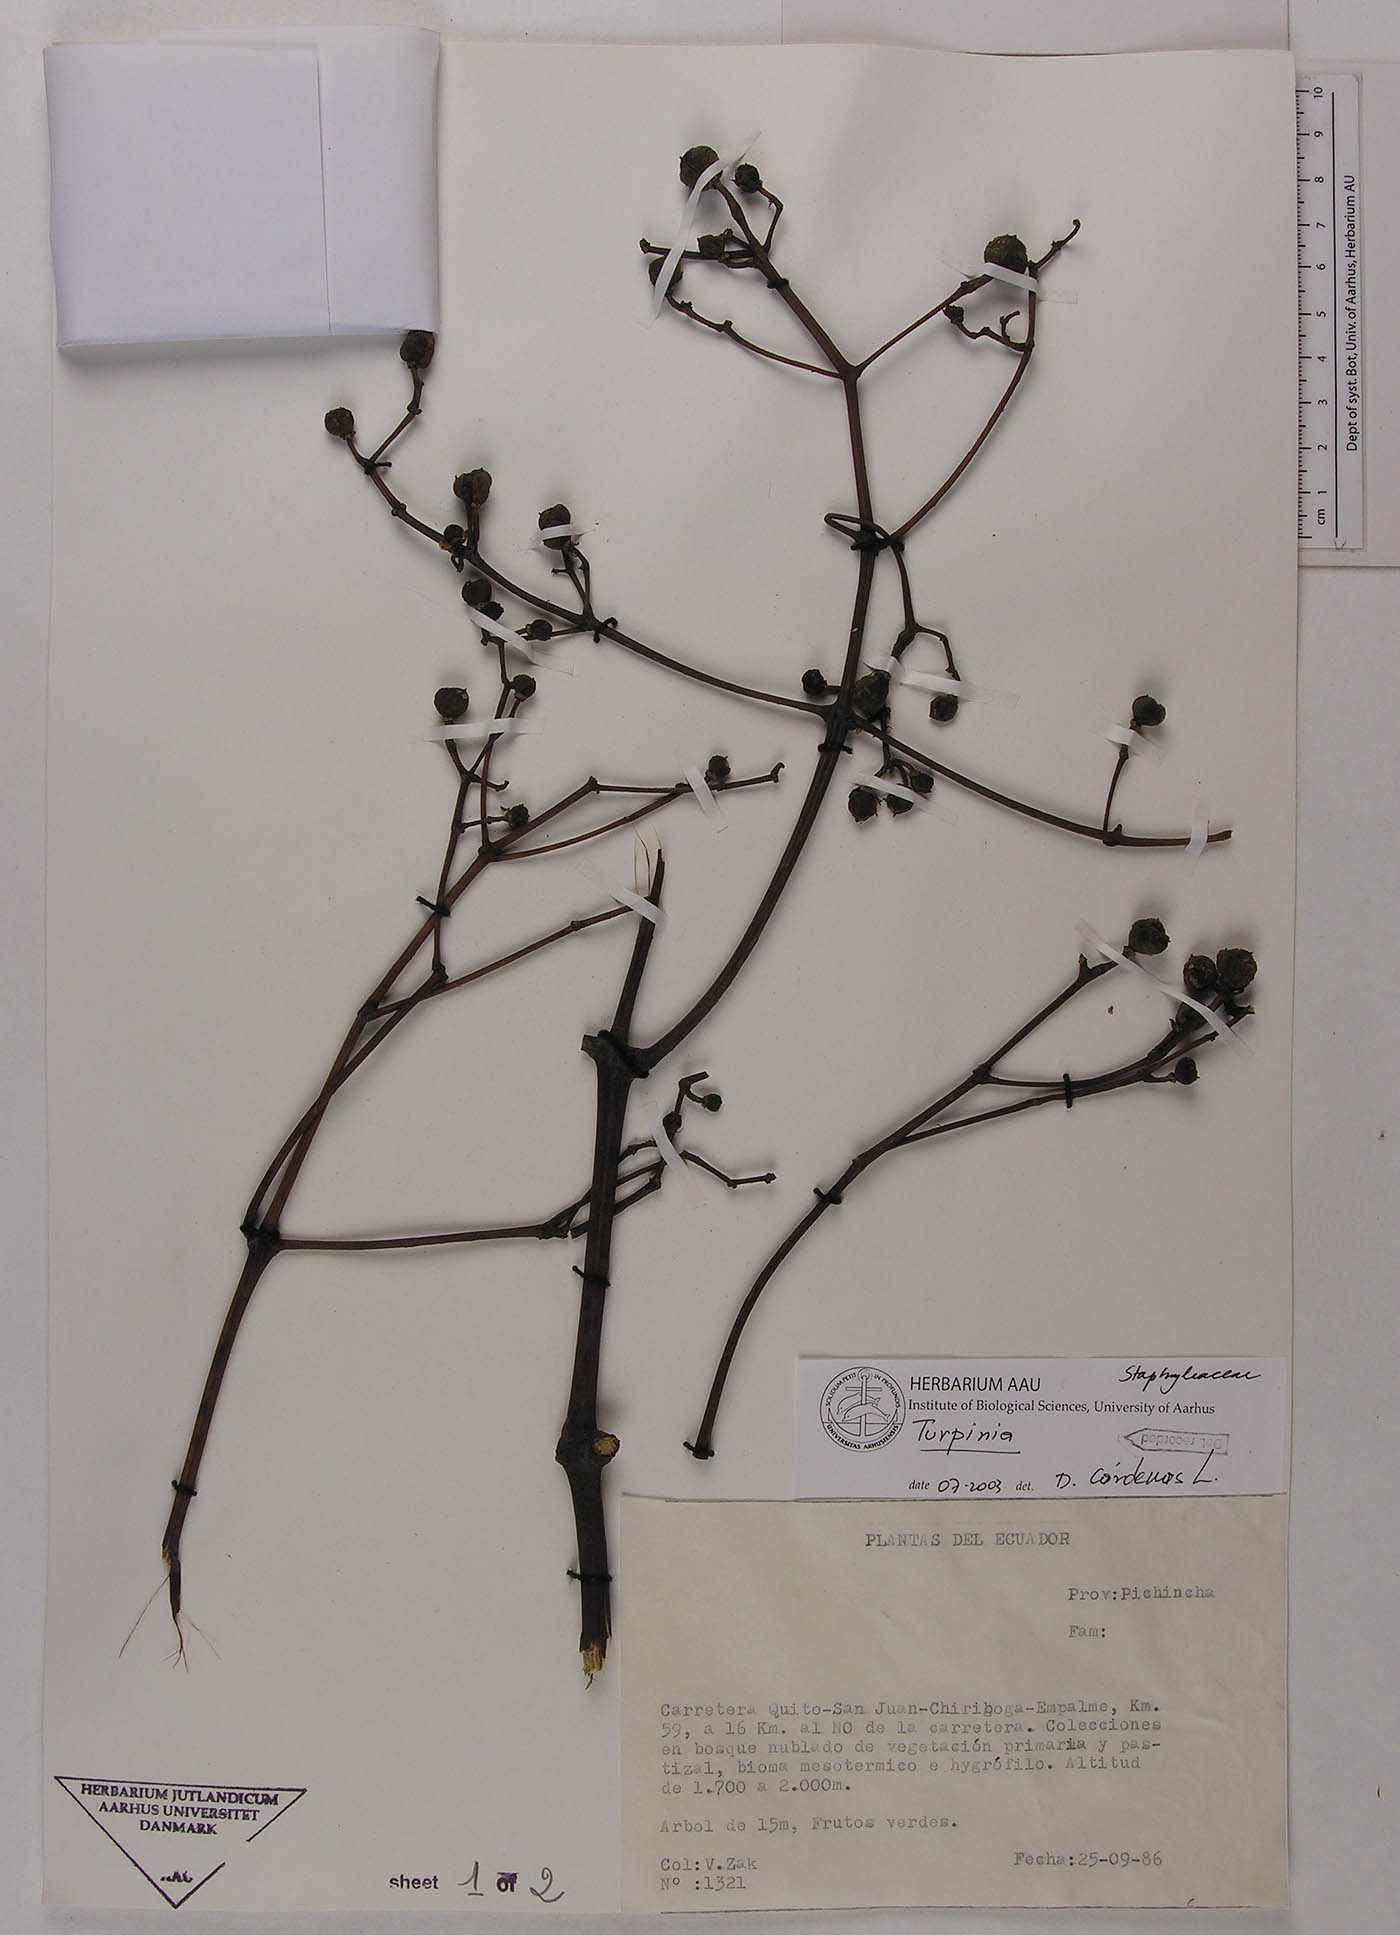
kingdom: Plantae
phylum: Tracheophyta
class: Magnoliopsida
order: Crossosomatales
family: Staphyleaceae
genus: Turpinia
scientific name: Turpinia megaphylla
